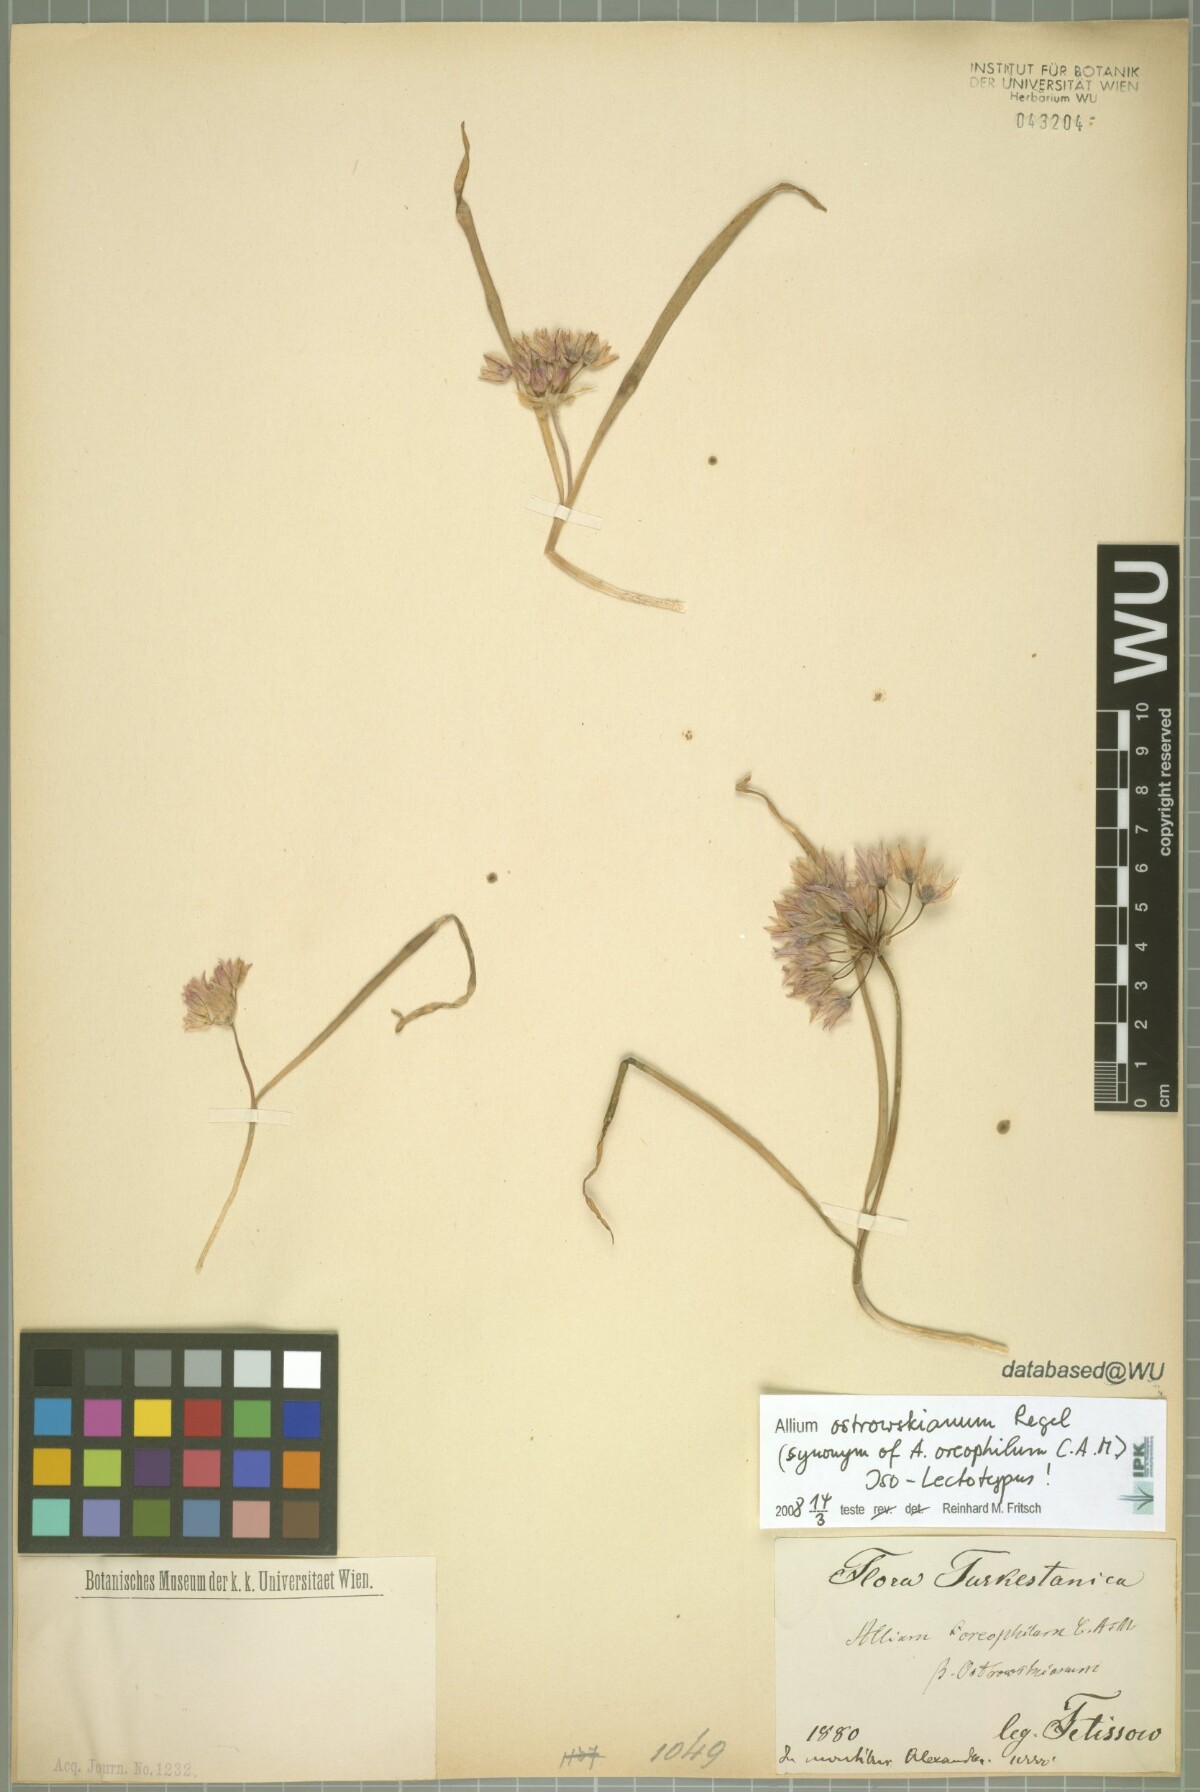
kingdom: Plantae
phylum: Tracheophyta
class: Liliopsida
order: Asparagales
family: Amaryllidaceae
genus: Allium
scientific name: Allium oreophilum
